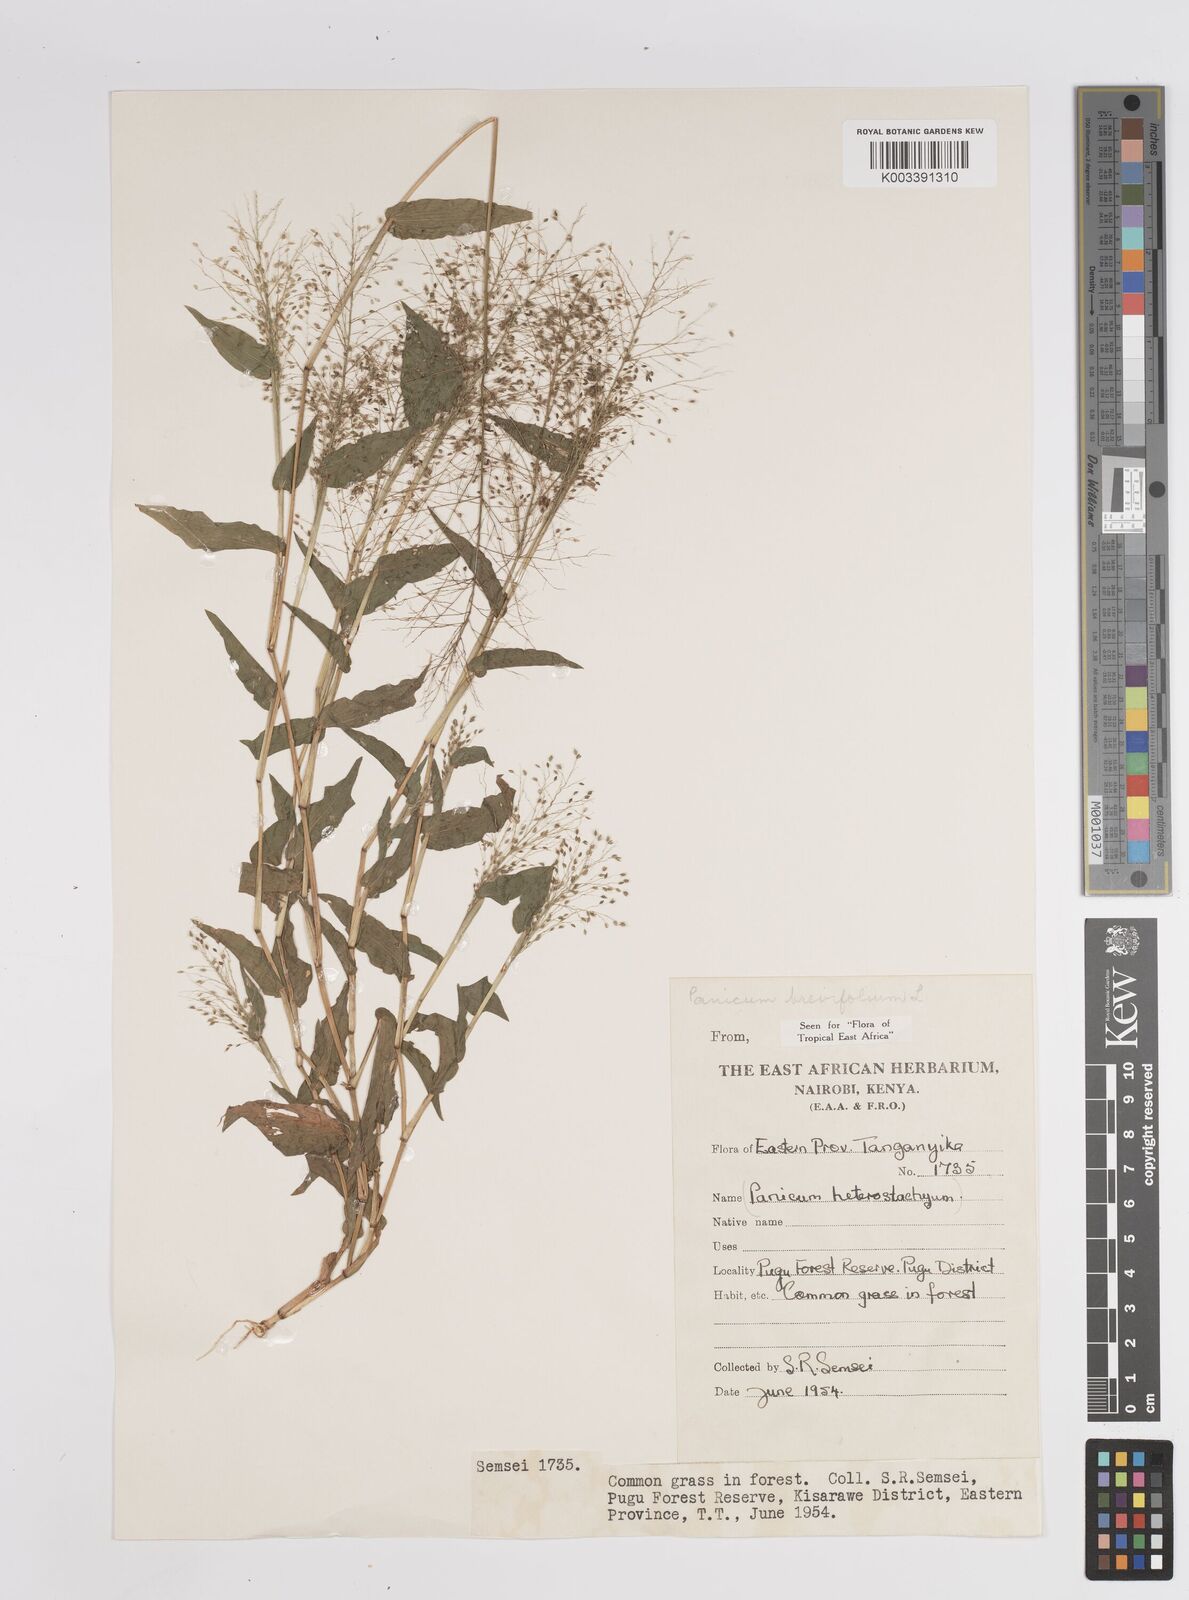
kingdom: Plantae
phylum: Tracheophyta
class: Liliopsida
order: Poales
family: Poaceae
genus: Panicum
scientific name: Panicum brevifolium
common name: Shortleaf panic grass
